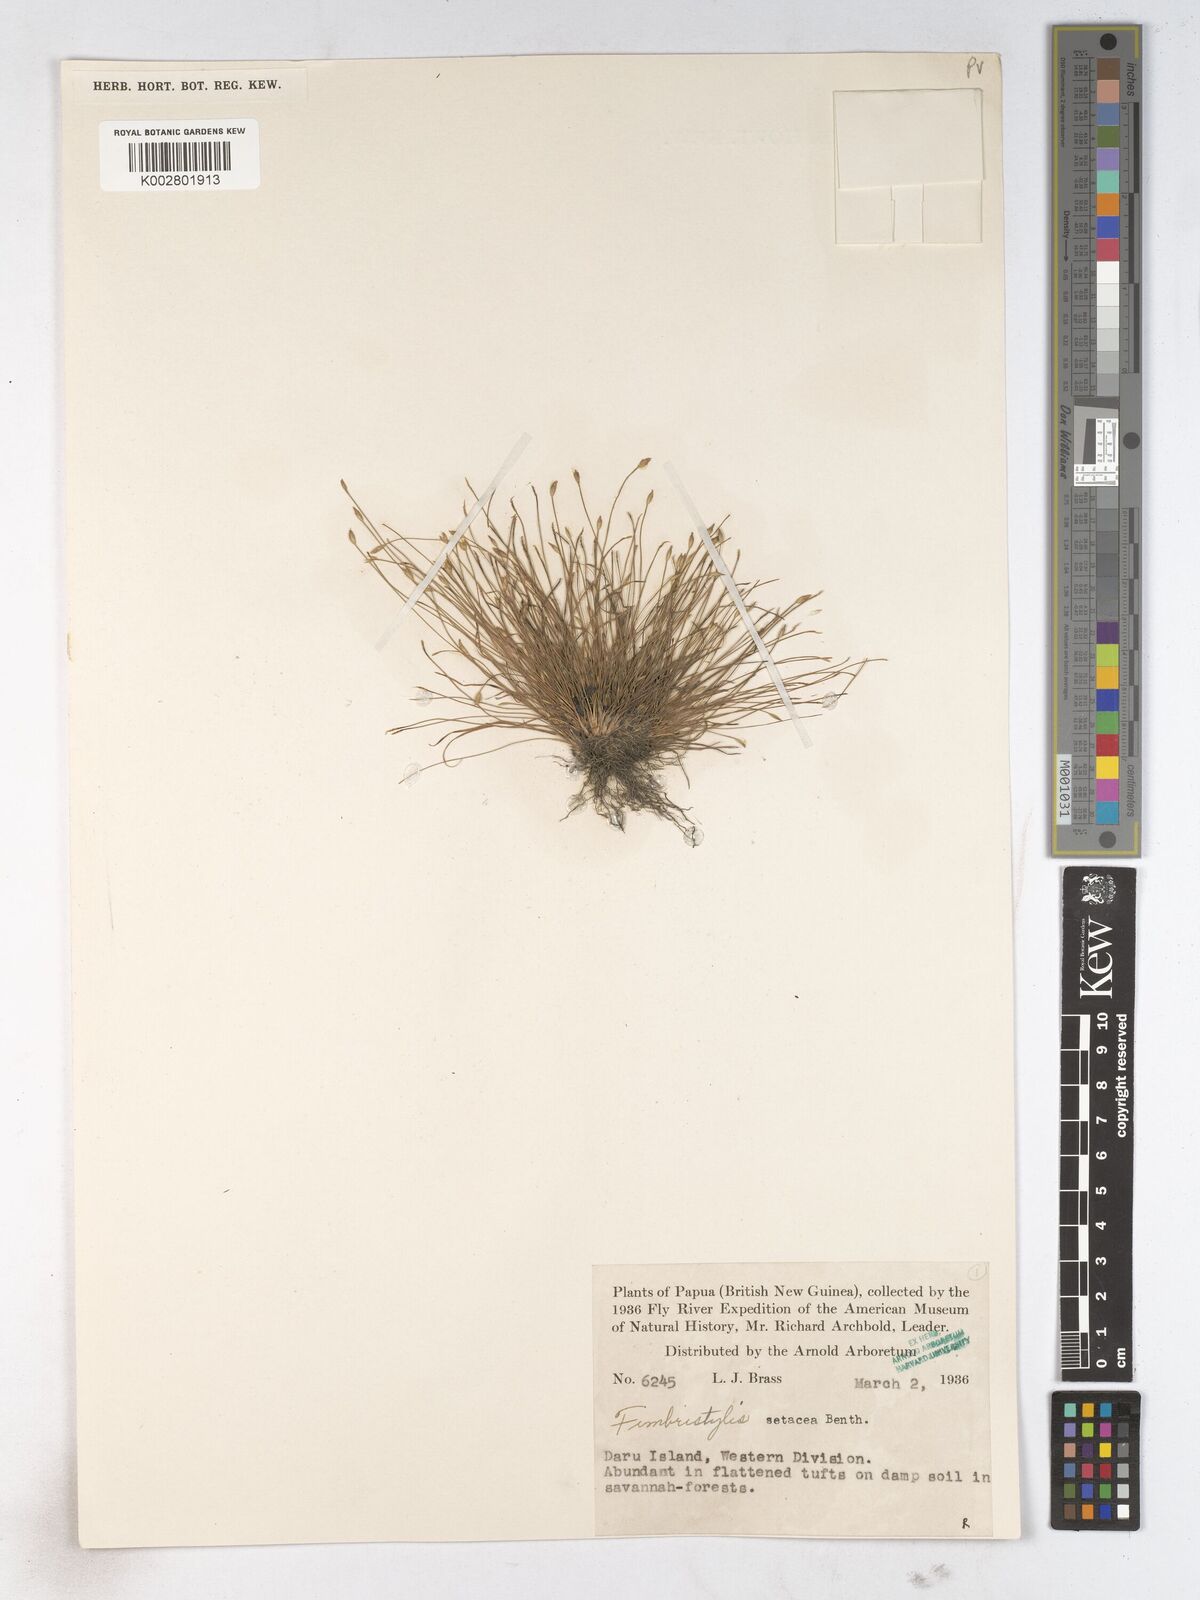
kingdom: Plantae
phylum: Tracheophyta
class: Liliopsida
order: Poales
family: Cyperaceae
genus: Fimbristylis
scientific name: Fimbristylis acicularis
